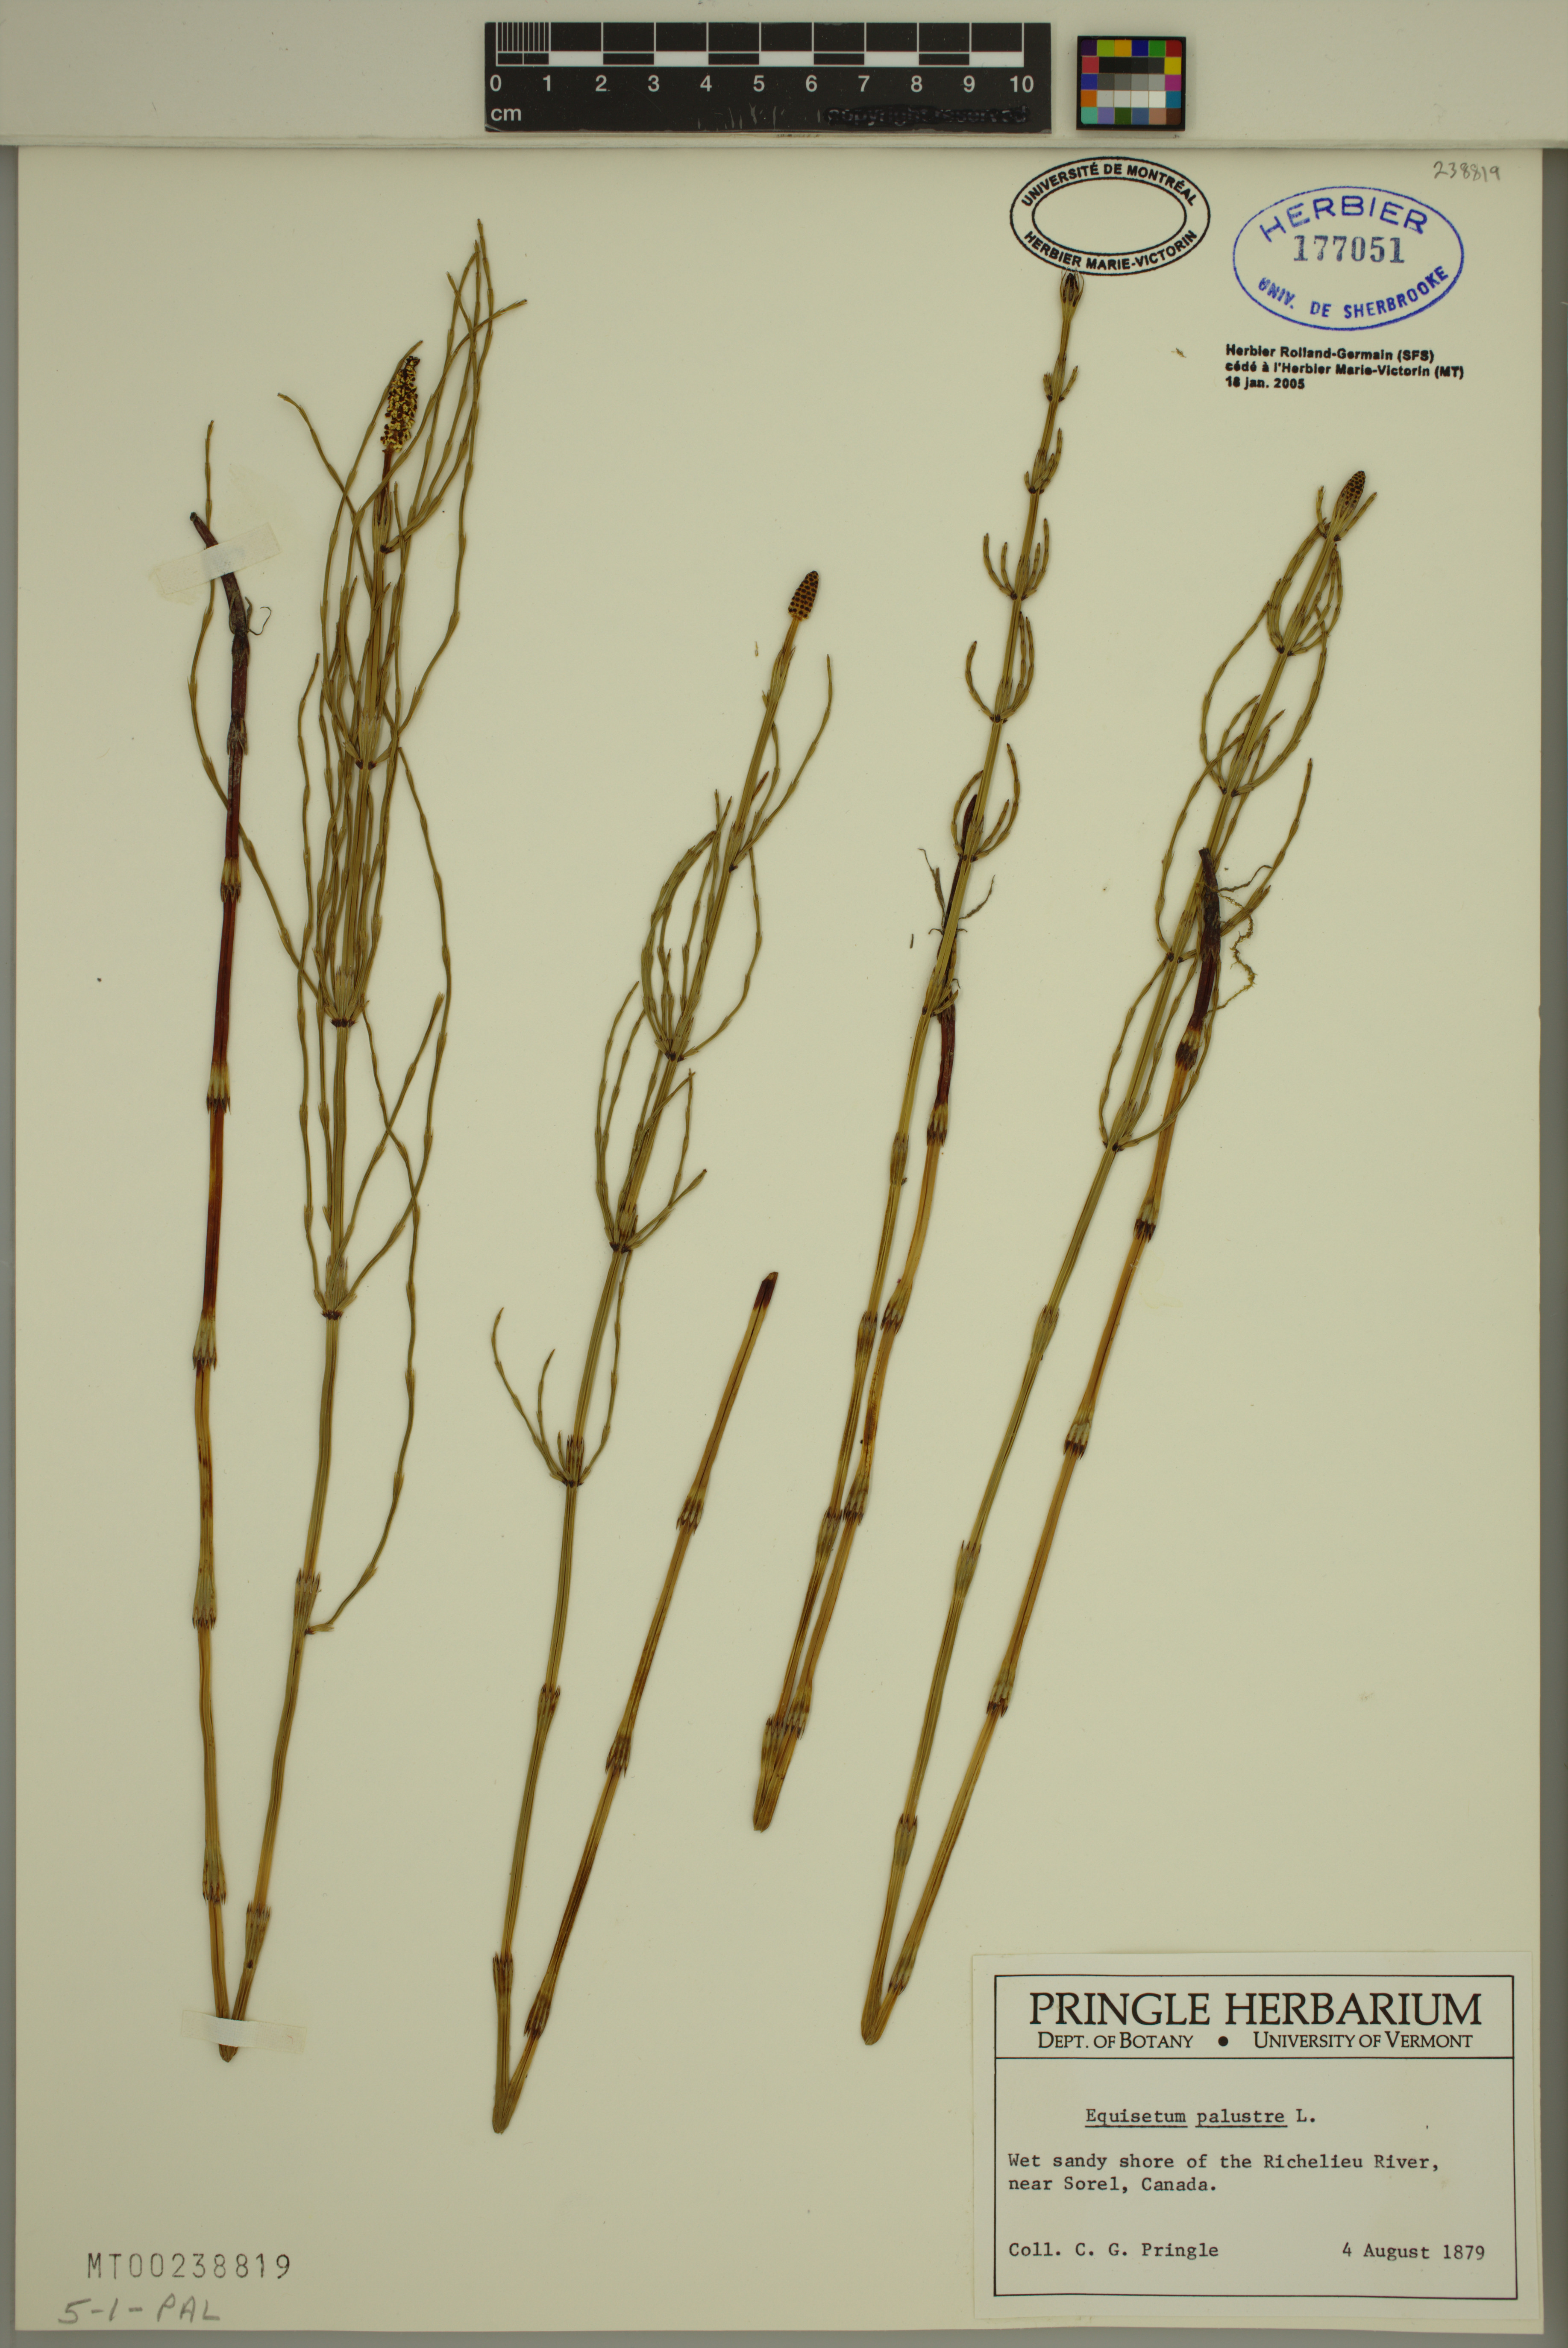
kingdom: Plantae
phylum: Tracheophyta
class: Polypodiopsida
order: Equisetales
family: Equisetaceae
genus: Equisetum
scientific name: Equisetum palustre
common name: Marsh horsetail
